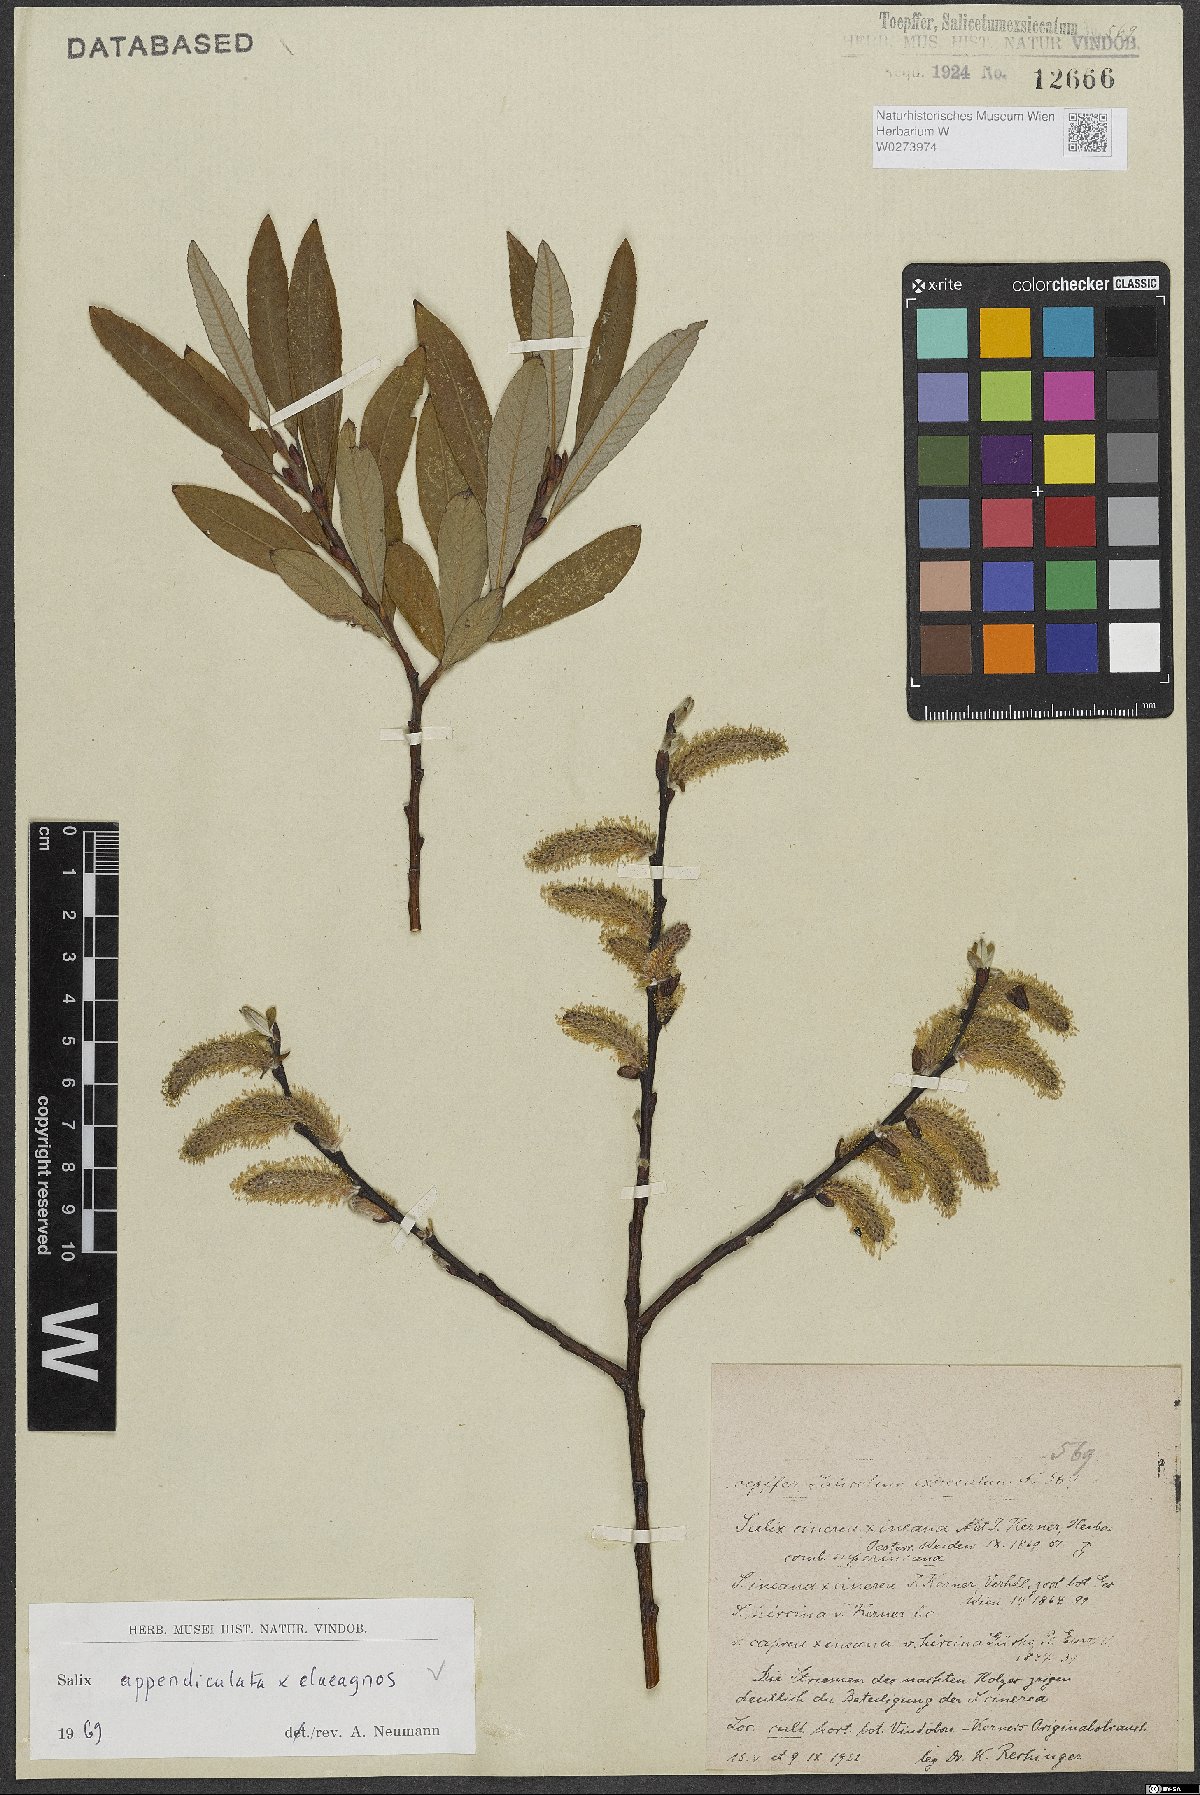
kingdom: Plantae
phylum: Tracheophyta
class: Magnoliopsida
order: Malpighiales
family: Salicaceae
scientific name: Salicaceae
